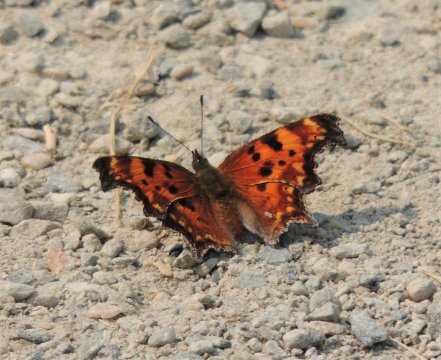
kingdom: Animalia
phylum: Arthropoda
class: Insecta
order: Lepidoptera
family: Nymphalidae
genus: Polygonia
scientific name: Polygonia gracilis
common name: Hoary Comma
